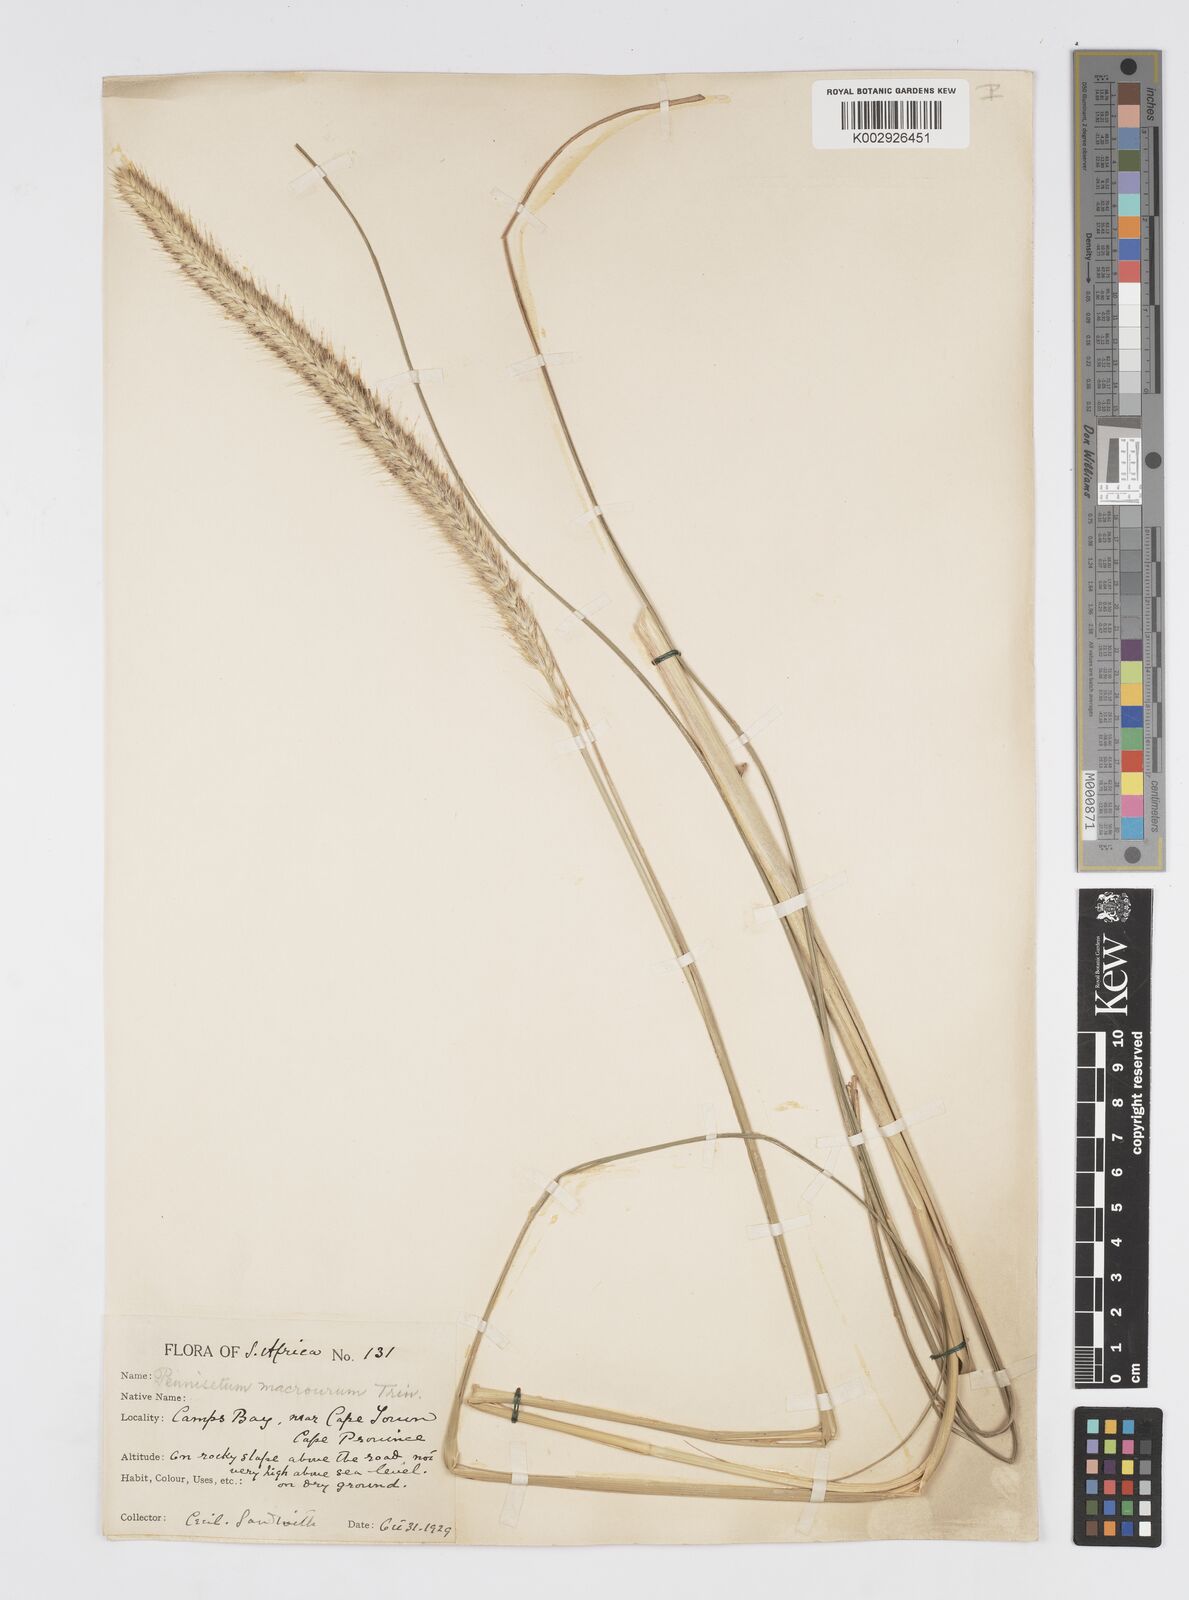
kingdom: Plantae
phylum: Tracheophyta
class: Liliopsida
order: Poales
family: Poaceae
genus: Cenchrus
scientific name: Cenchrus purpureus
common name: Elephant grass
